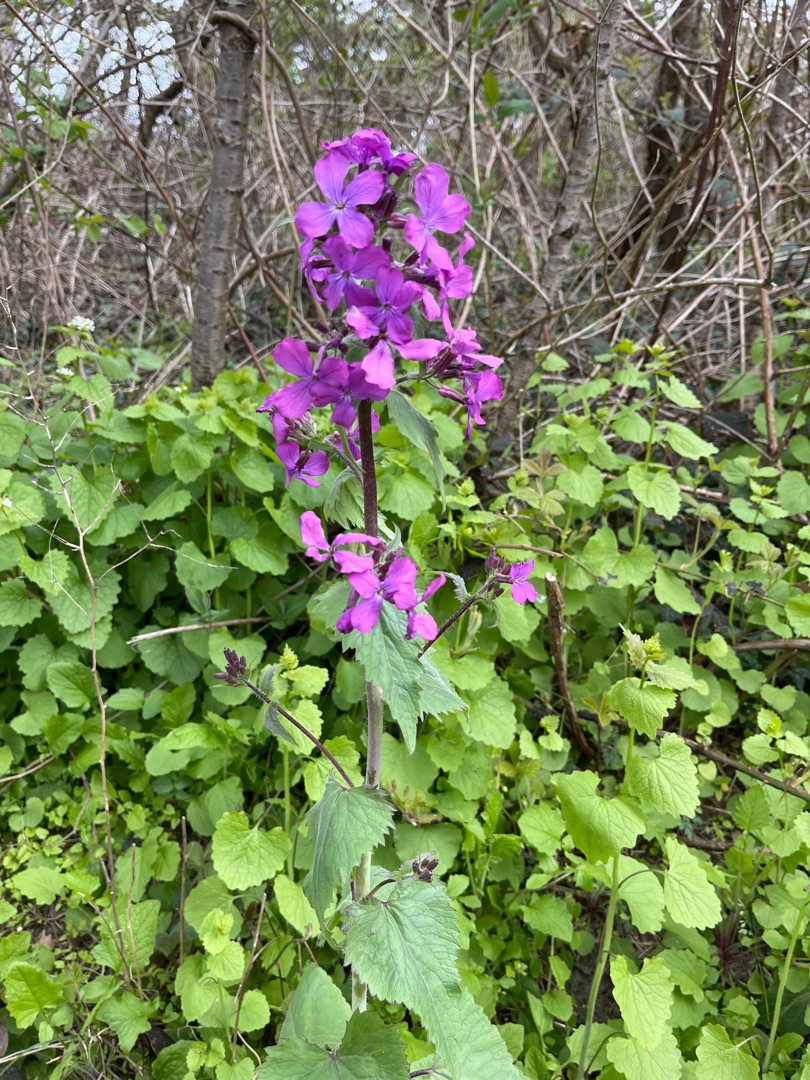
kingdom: Plantae
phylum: Tracheophyta
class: Magnoliopsida
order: Brassicales
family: Brassicaceae
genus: Lunaria
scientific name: Lunaria annua
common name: Judaspenge
